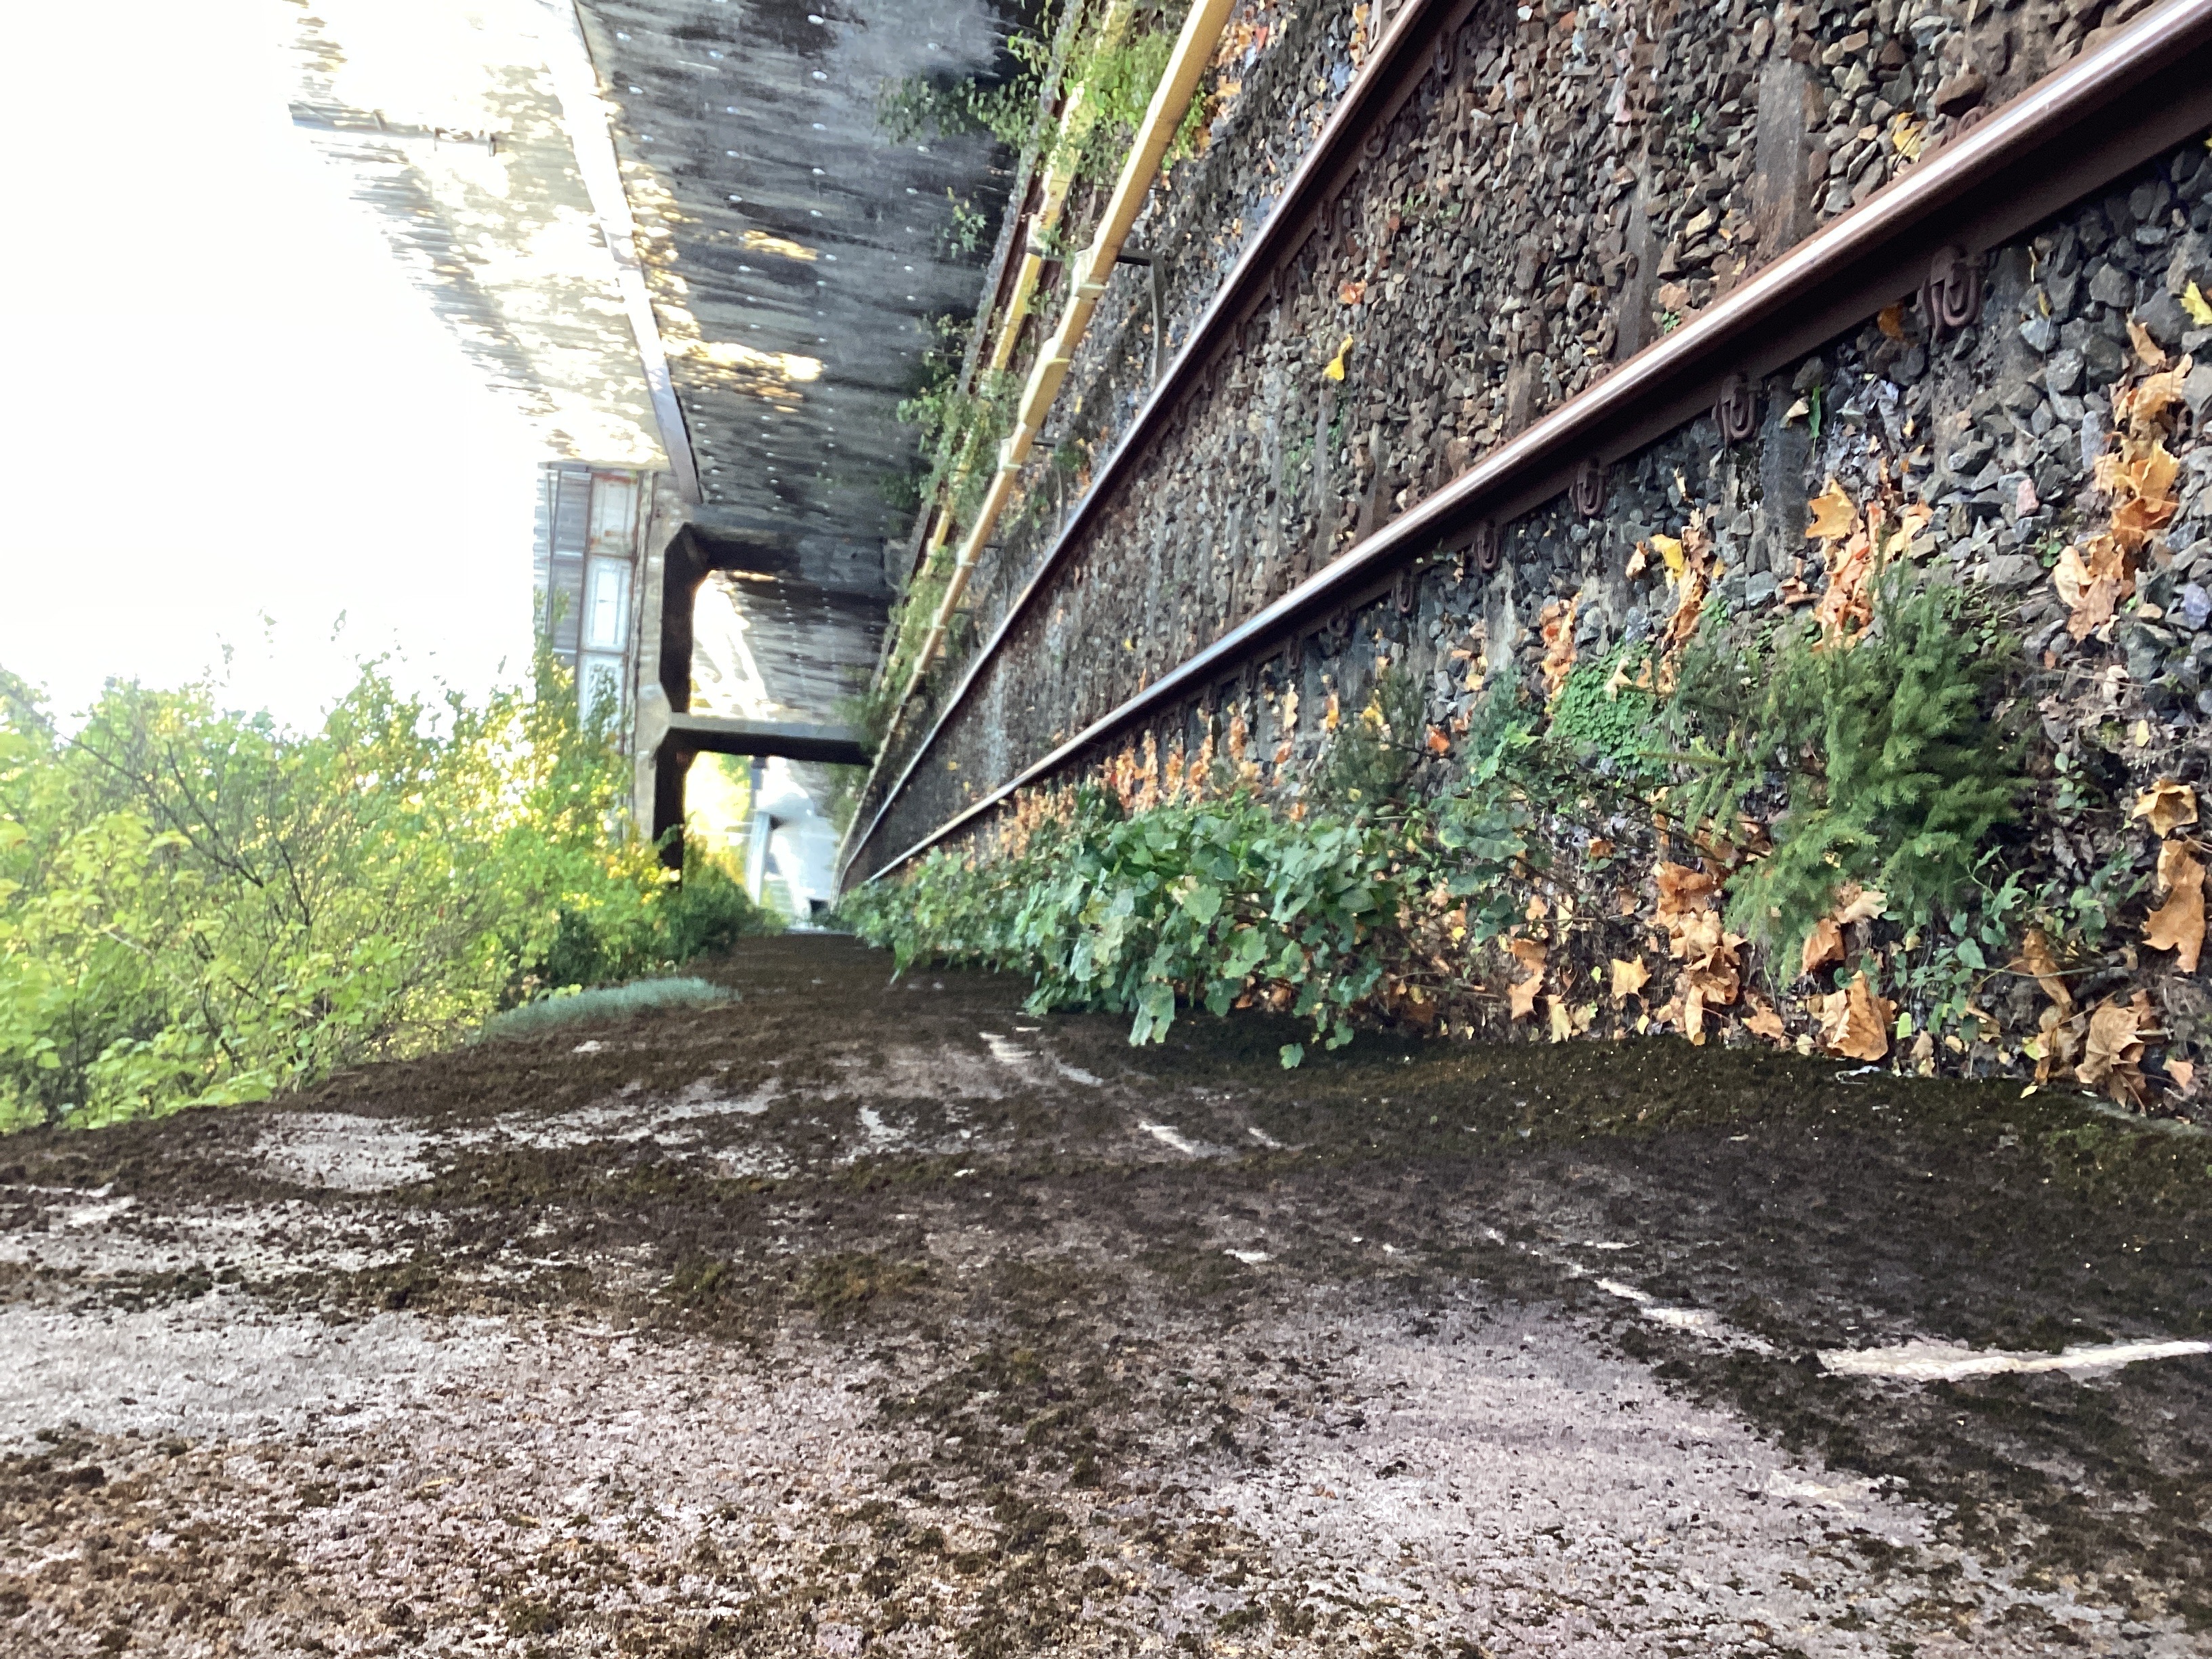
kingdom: Plantae
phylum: Tracheophyta
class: Magnoliopsida
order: Sapindales
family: Sapindaceae
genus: Acer
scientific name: Acer pseudoplatanus
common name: platanlønn
